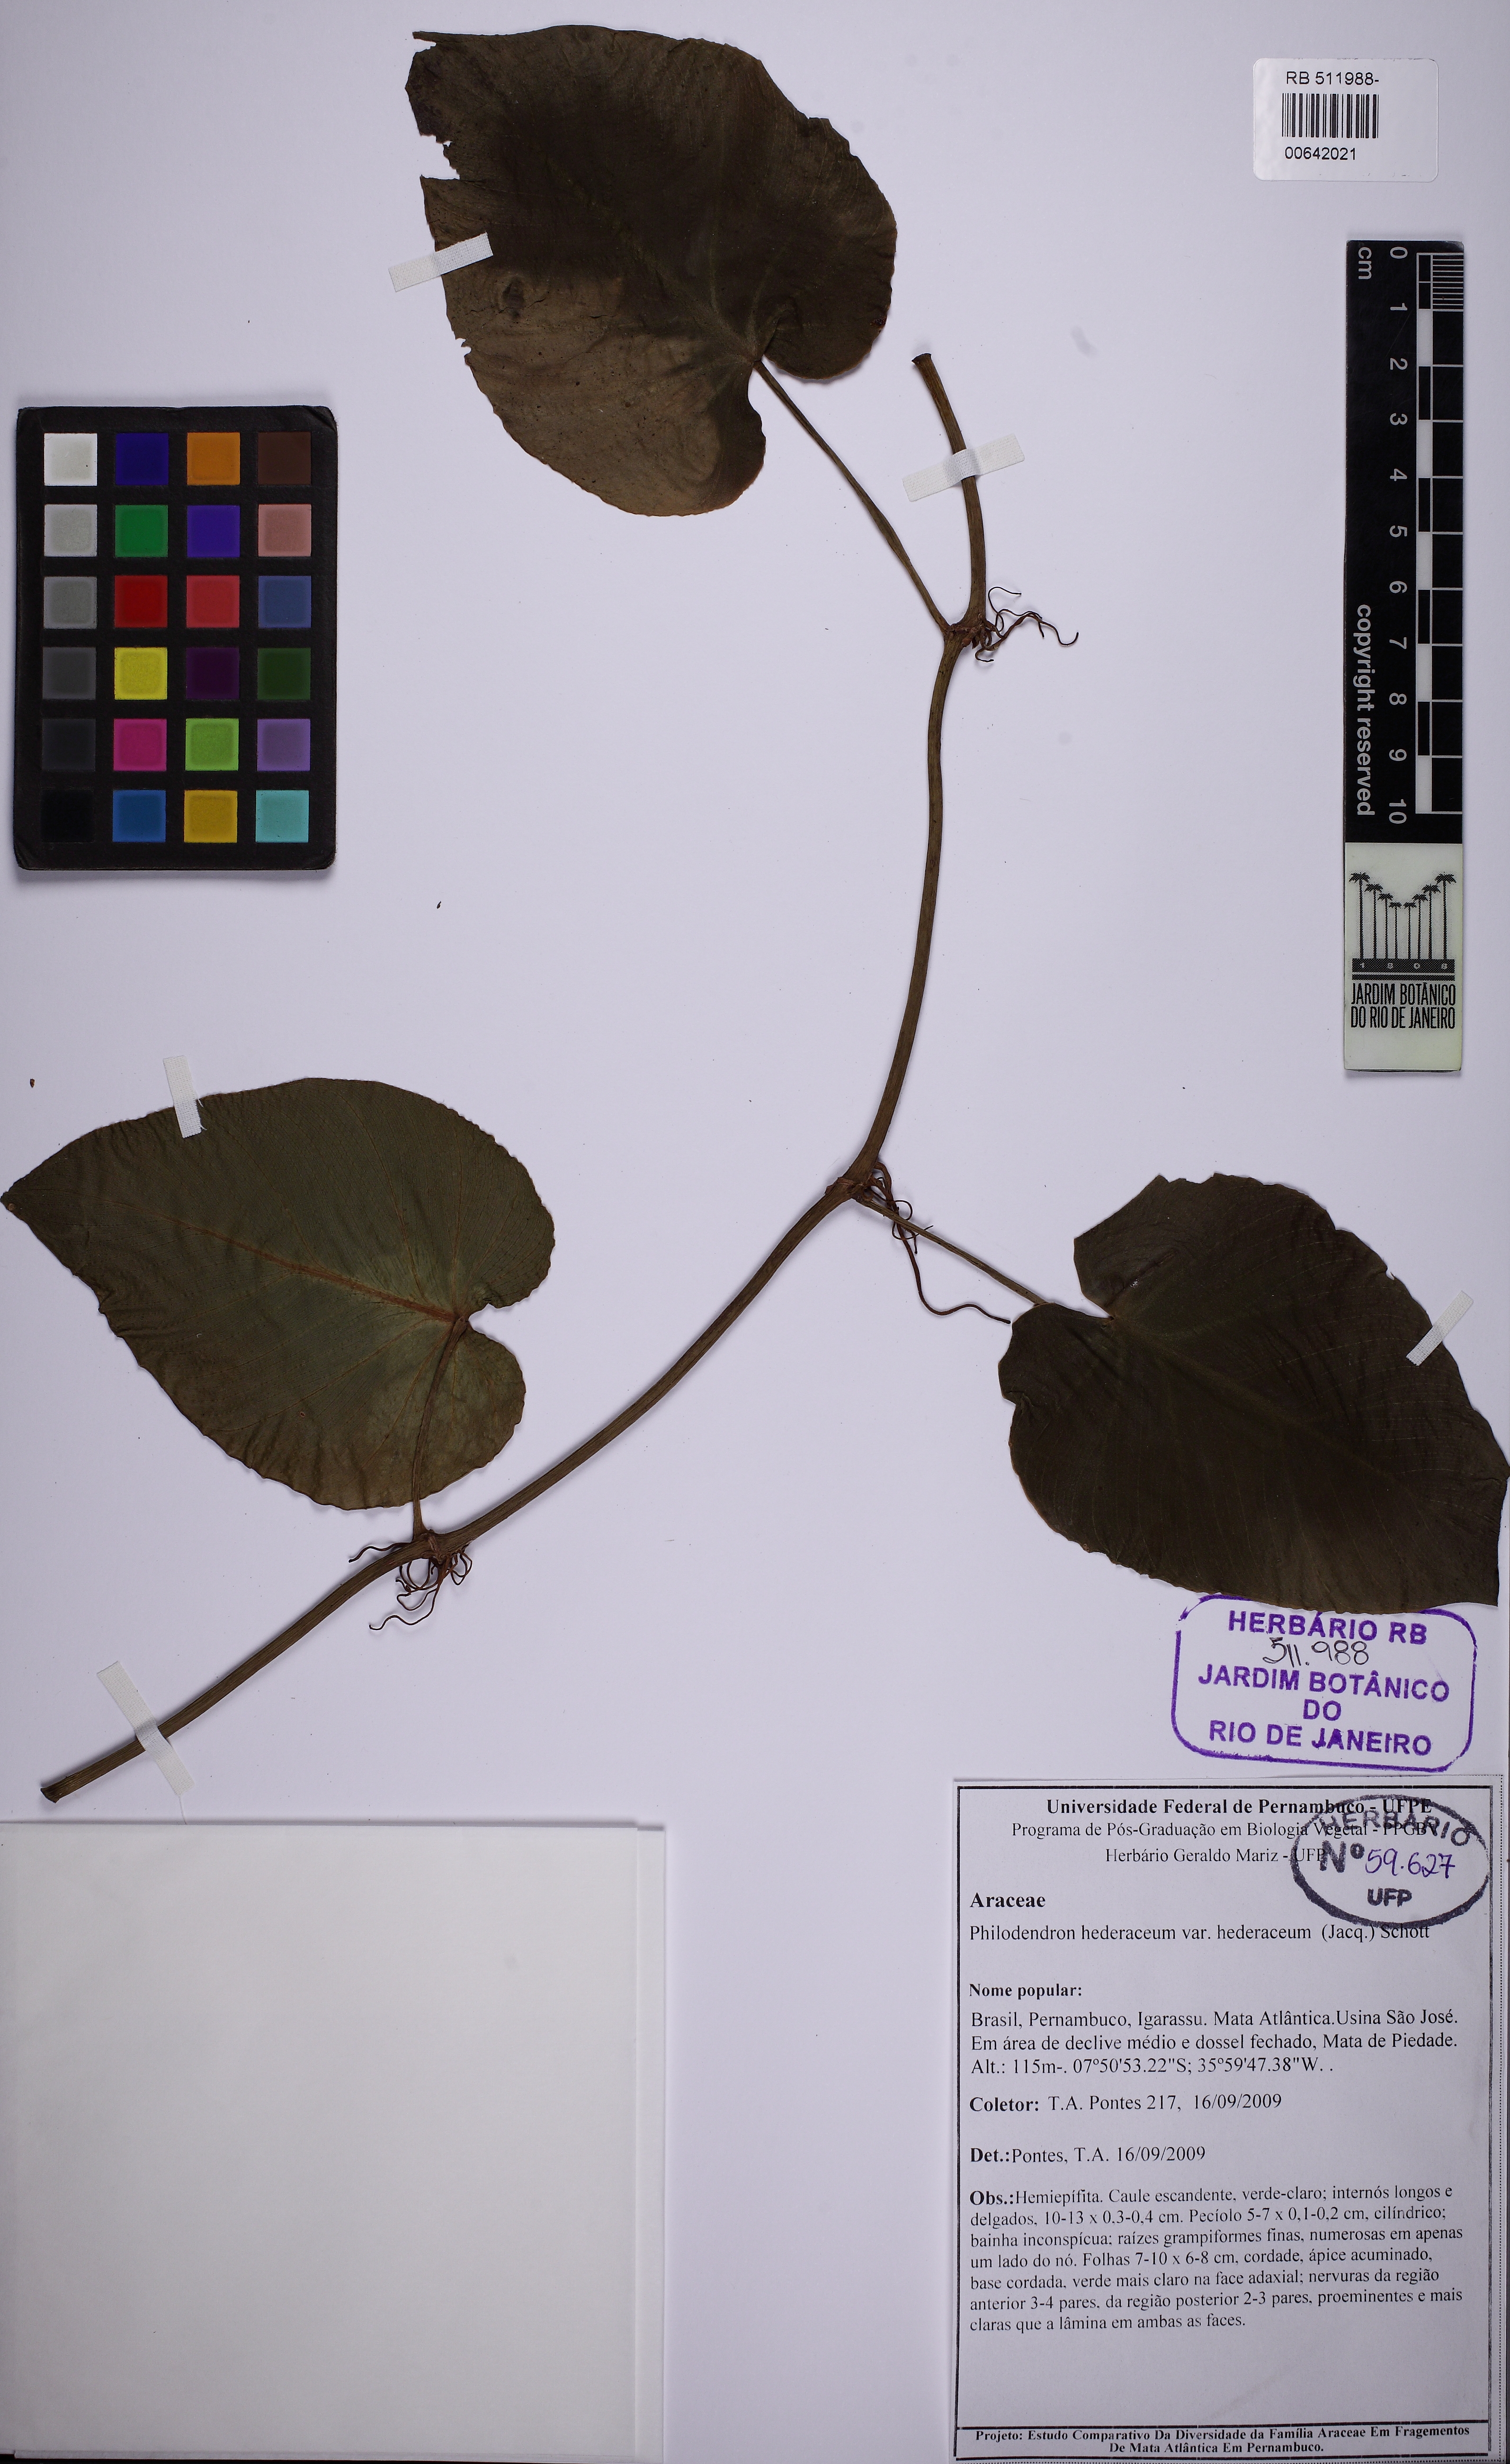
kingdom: Plantae
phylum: Tracheophyta
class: Liliopsida
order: Alismatales
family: Araceae
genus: Philodendron
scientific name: Philodendron hederaceum
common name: Vilevine
